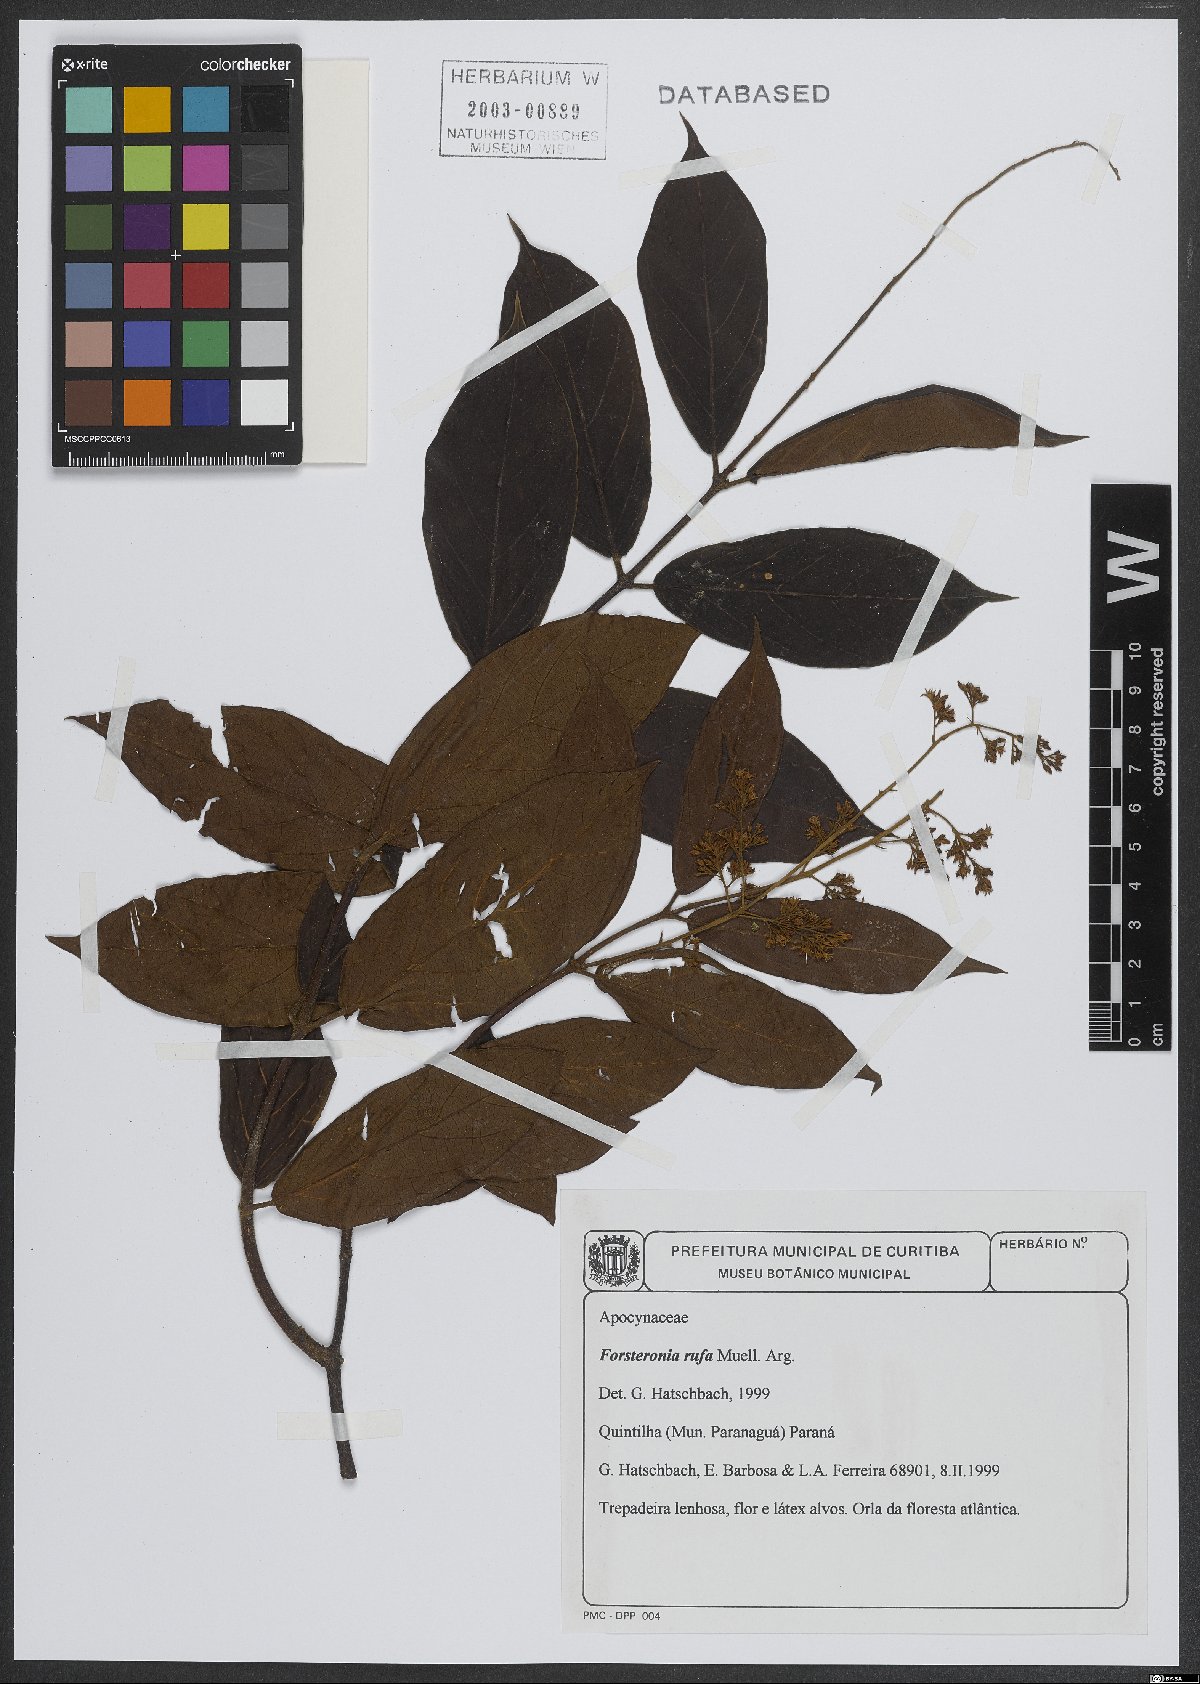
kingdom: Plantae
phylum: Tracheophyta
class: Magnoliopsida
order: Gentianales
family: Apocynaceae
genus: Forsteronia
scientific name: Forsteronia rufa
